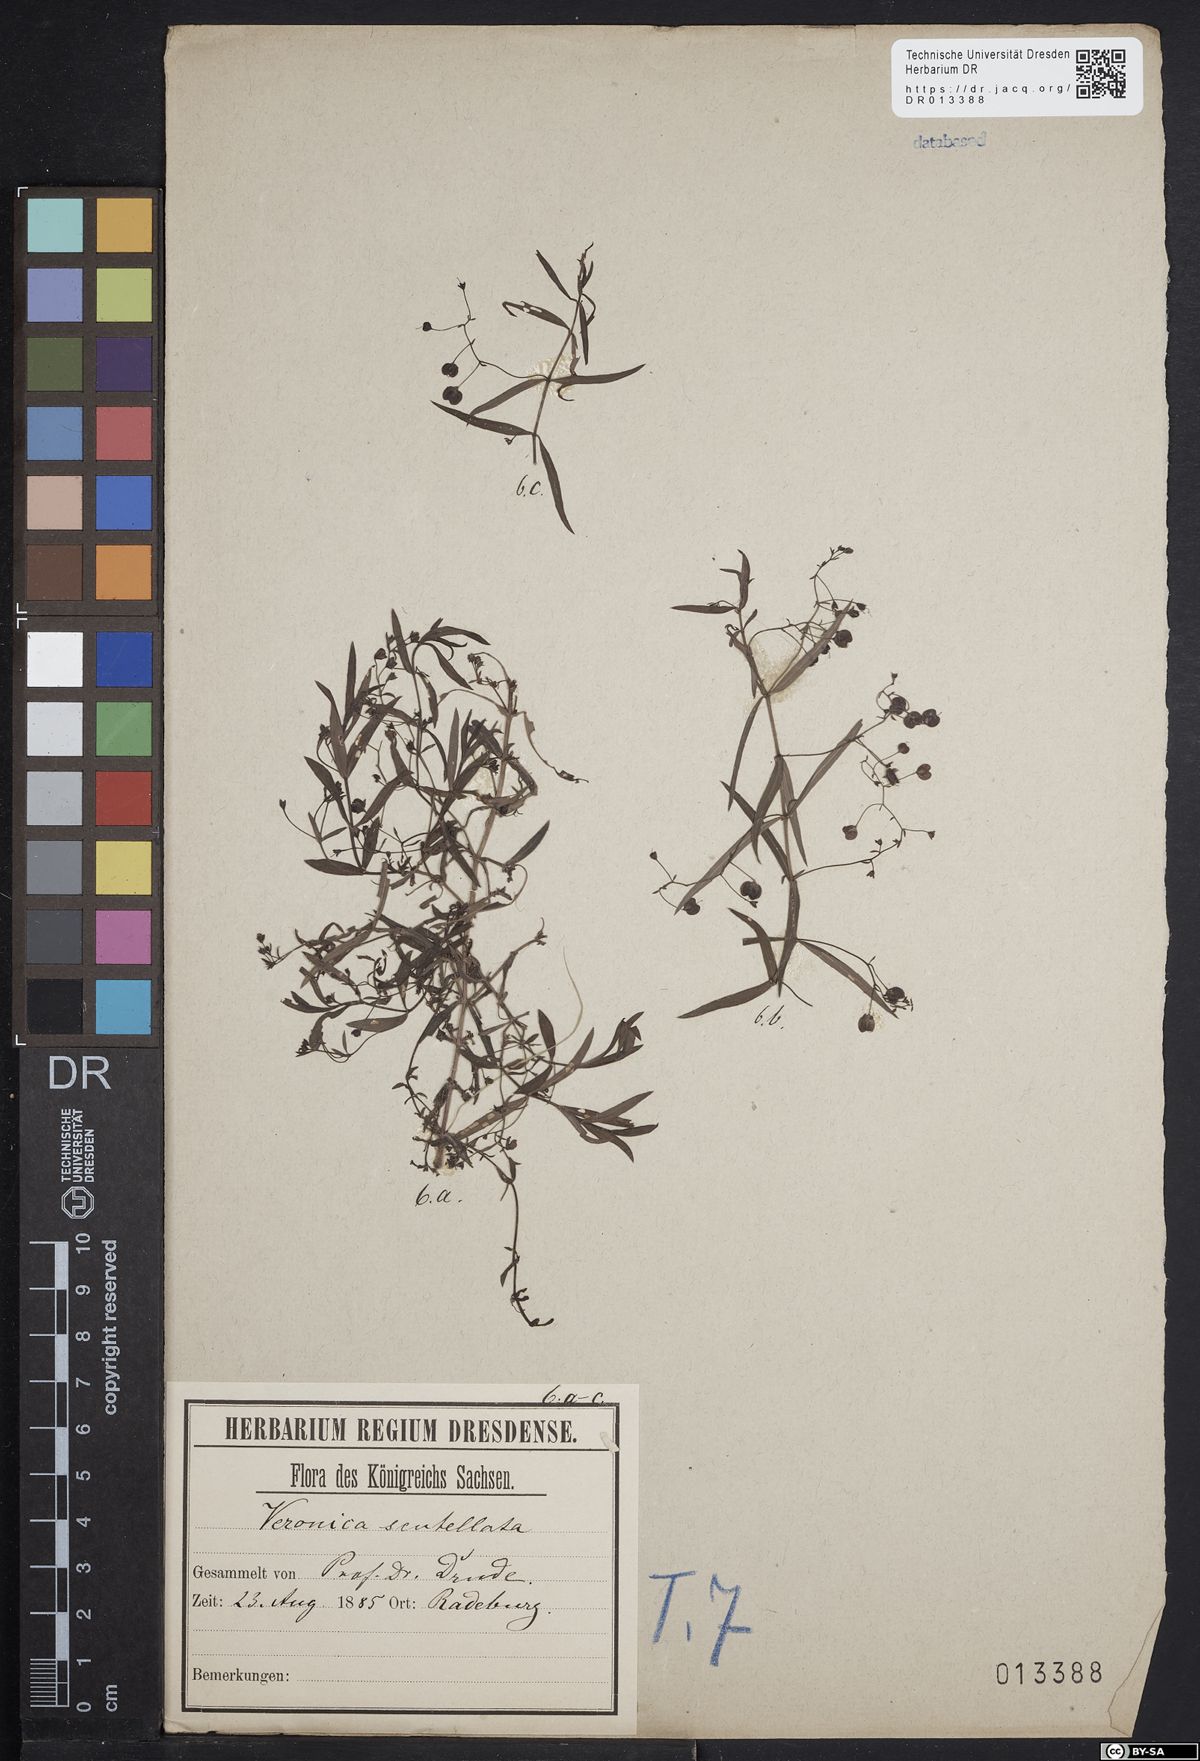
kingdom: Plantae
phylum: Tracheophyta
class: Magnoliopsida
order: Lamiales
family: Plantaginaceae
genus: Veronica
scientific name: Veronica scutellata
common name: Marsh speedwell
